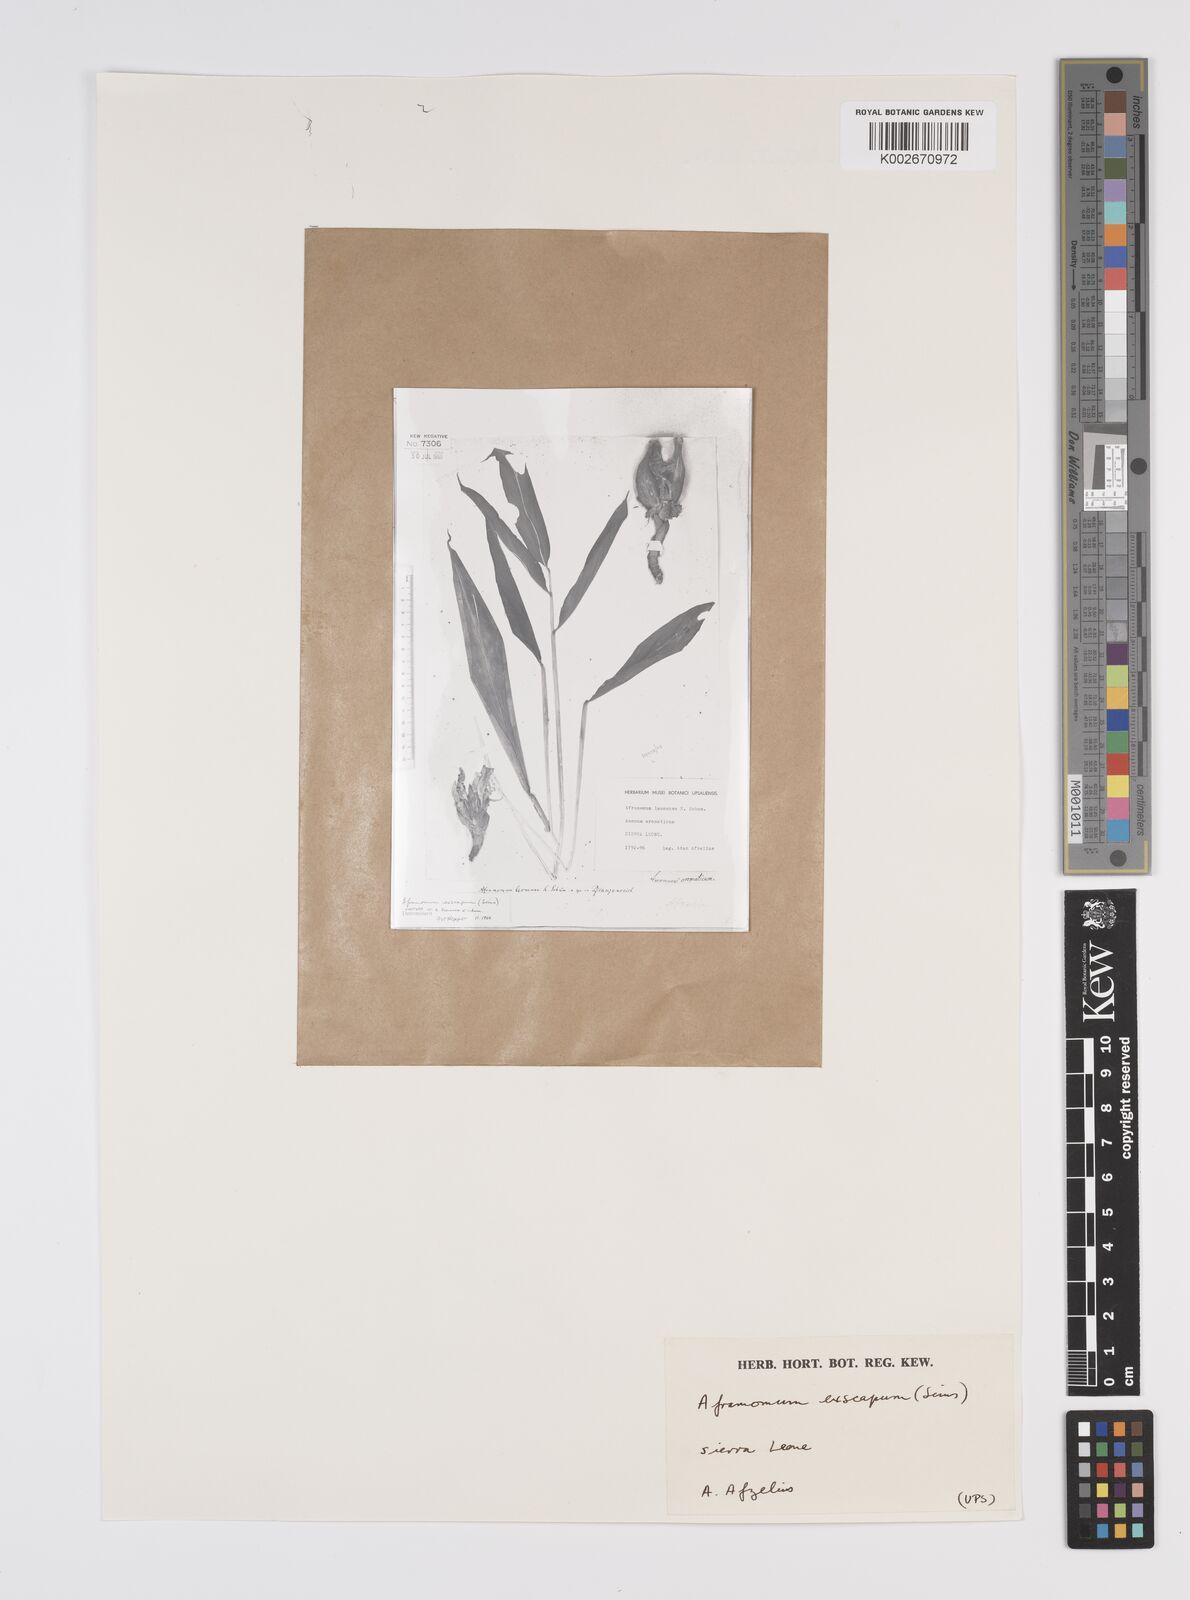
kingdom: Plantae
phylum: Tracheophyta
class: Liliopsida
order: Zingiberales
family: Zingiberaceae
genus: Aframomum
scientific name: Aframomum exscapum
